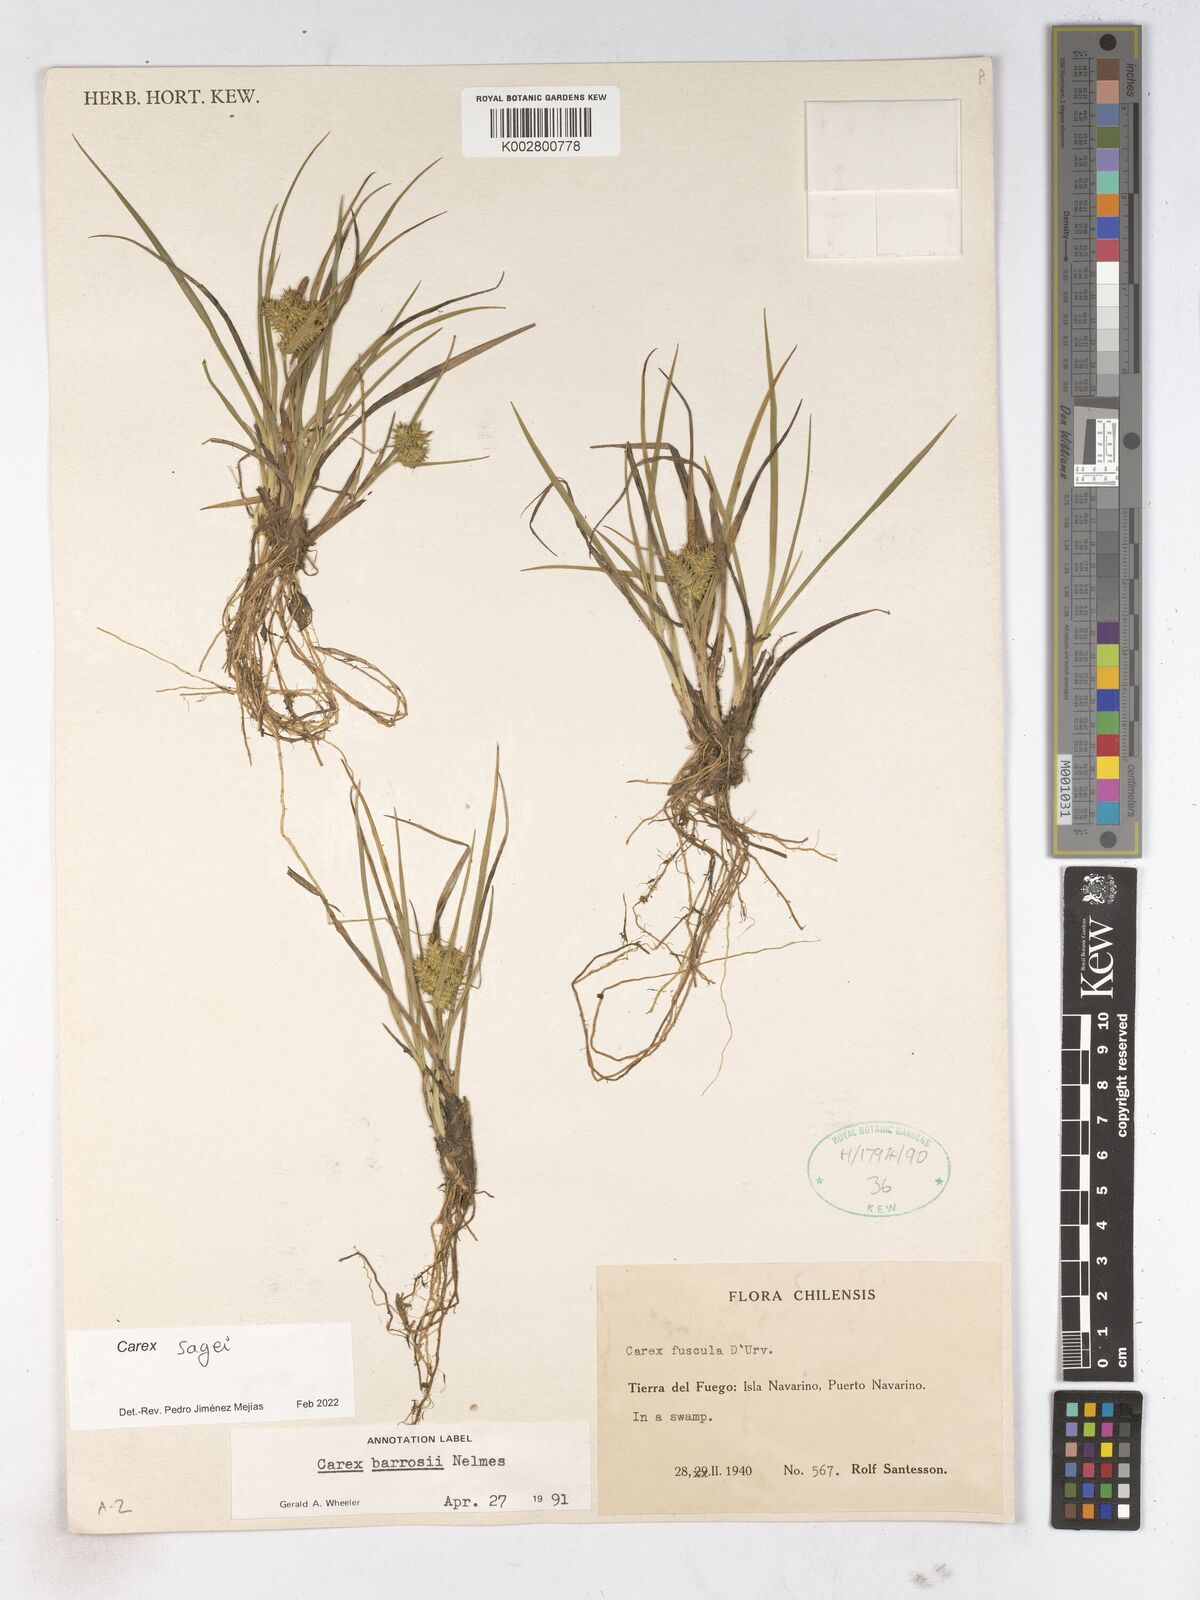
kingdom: Plantae
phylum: Tracheophyta
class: Liliopsida
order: Poales
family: Cyperaceae
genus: Carex
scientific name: Carex
